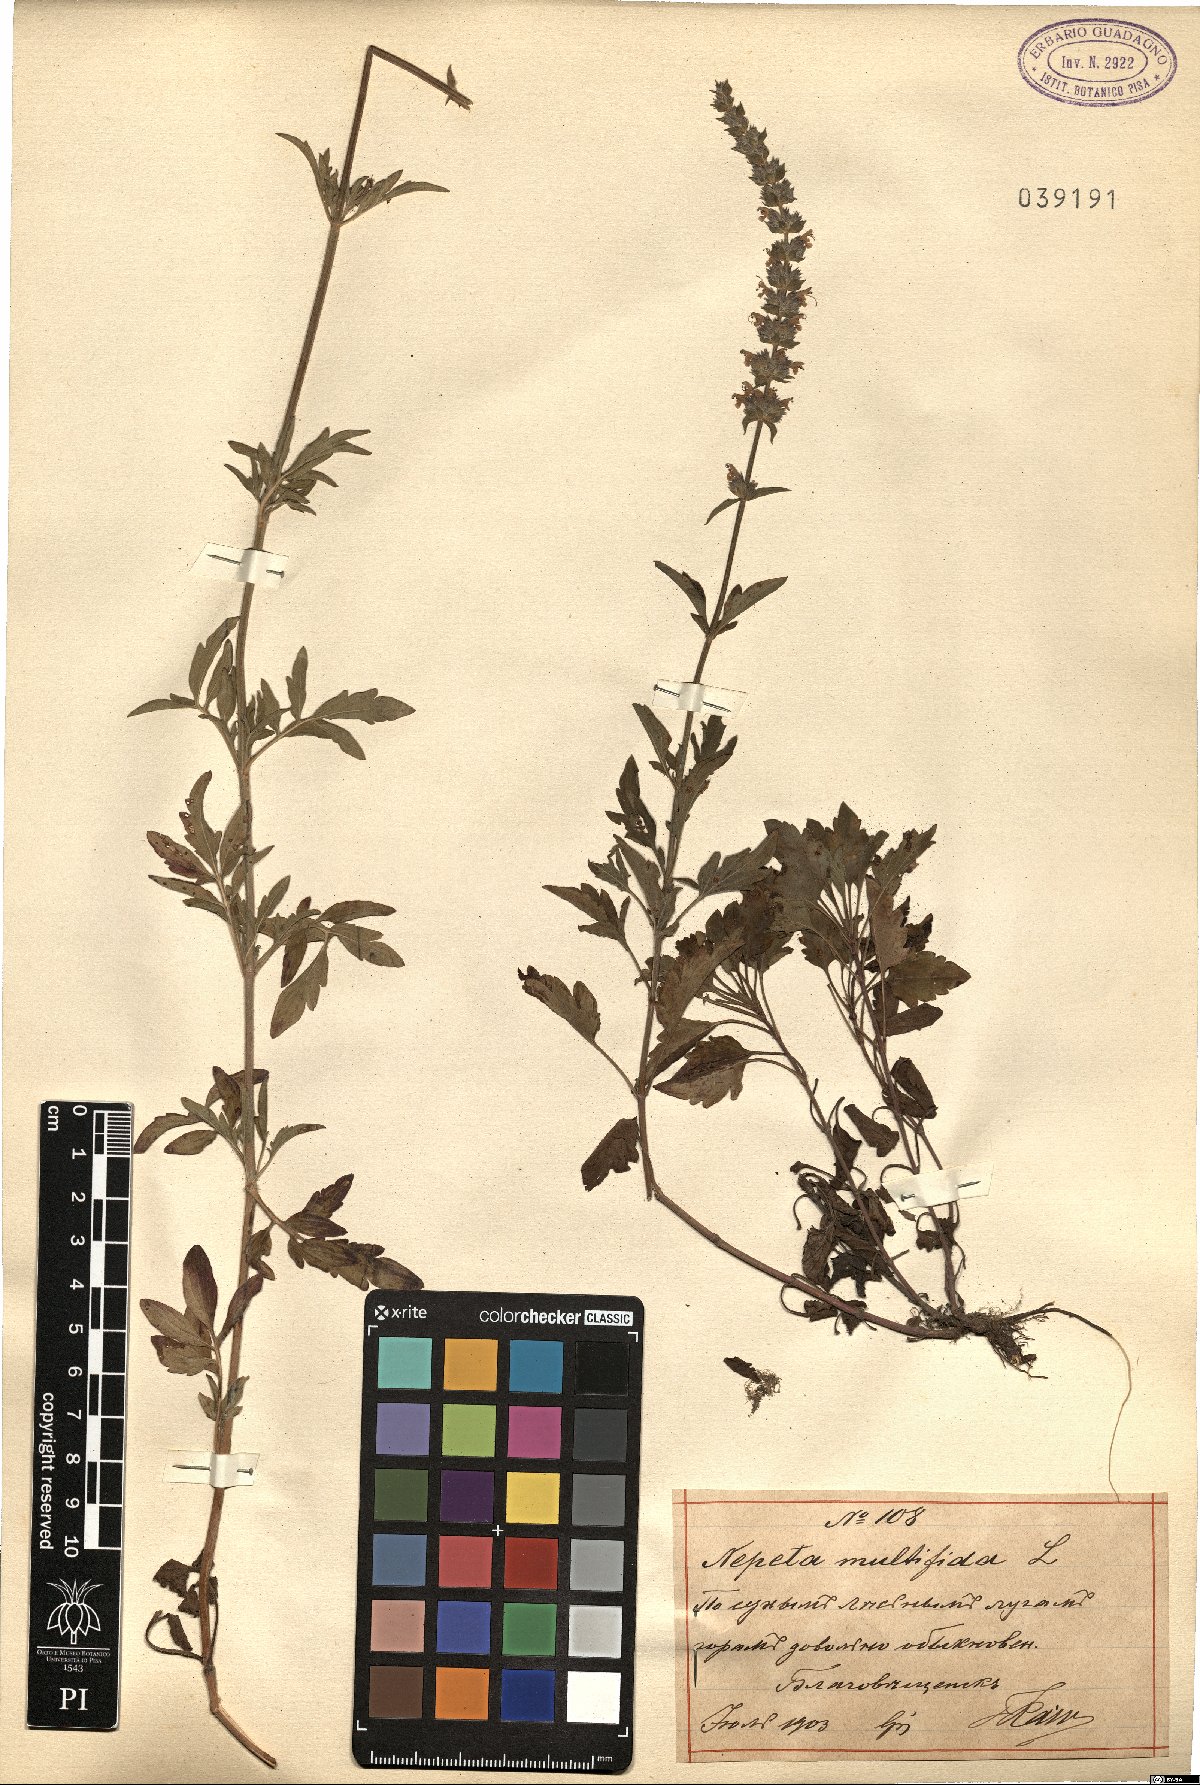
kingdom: Plantae
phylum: Tracheophyta
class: Magnoliopsida
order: Lamiales
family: Lamiaceae
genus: Nepeta
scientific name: Nepeta multifida
